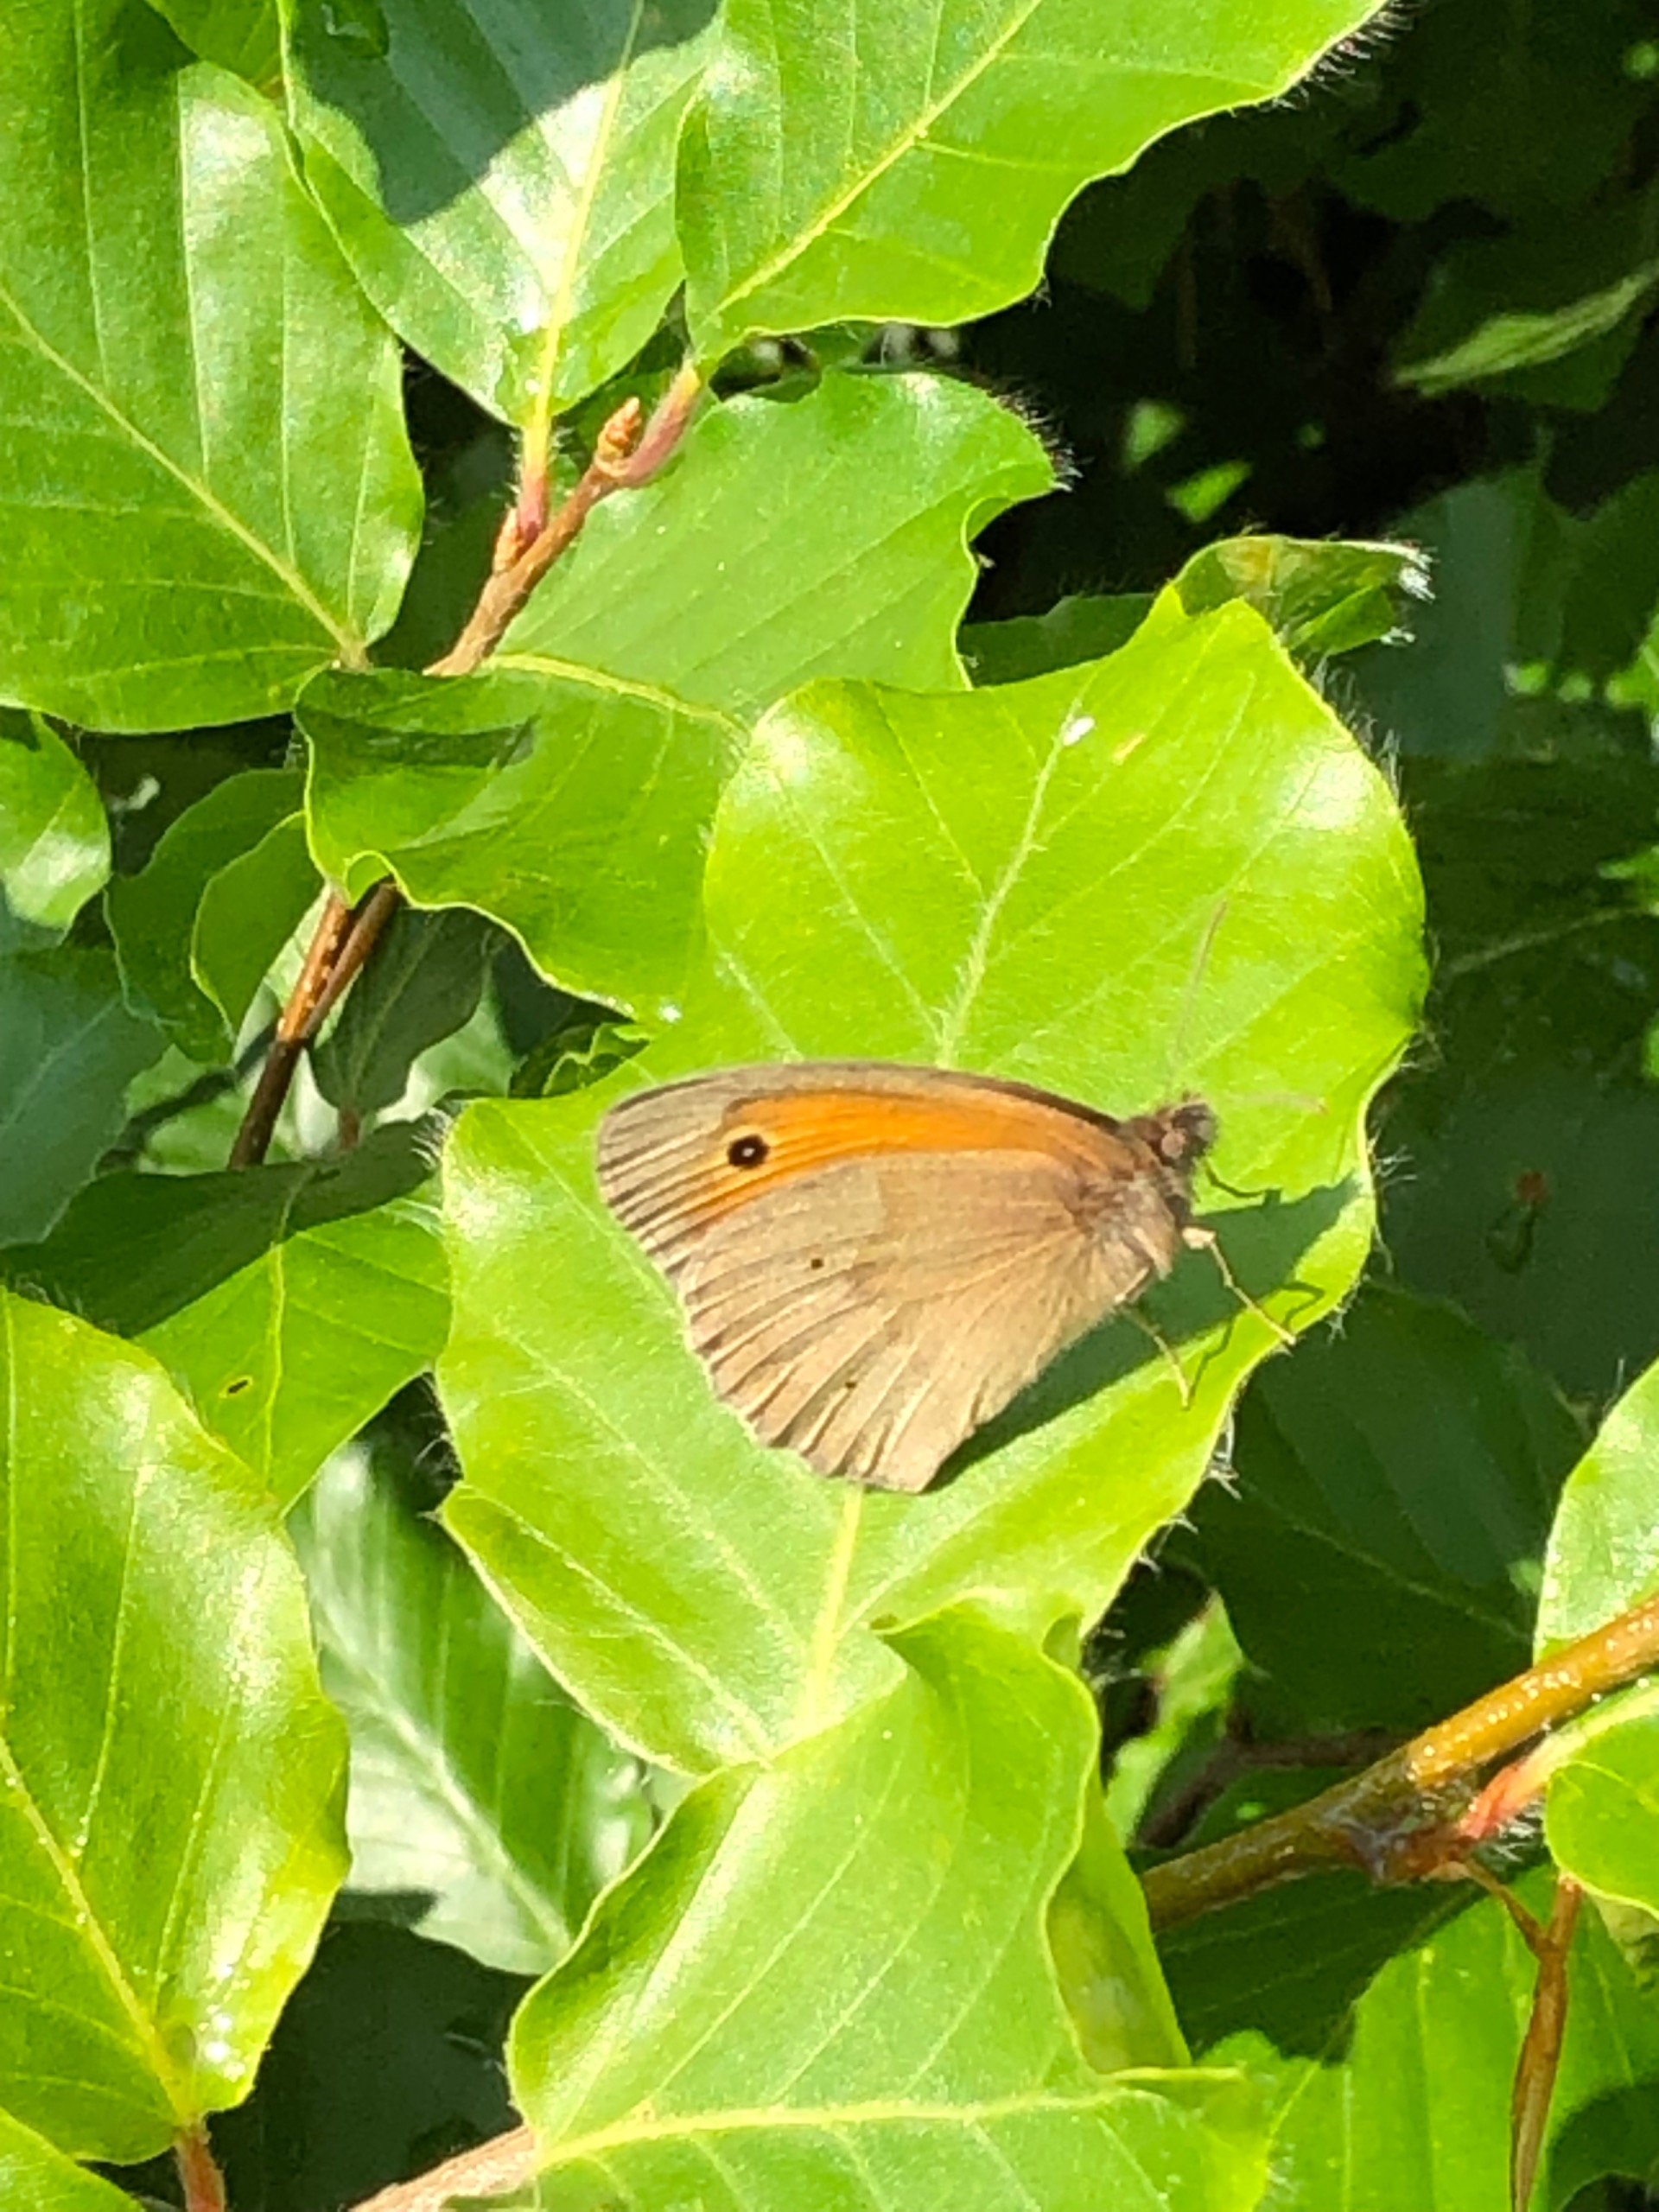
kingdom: Animalia
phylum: Arthropoda
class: Insecta
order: Lepidoptera
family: Nymphalidae
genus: Maniola
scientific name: Maniola jurtina
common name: Græsrandøje
